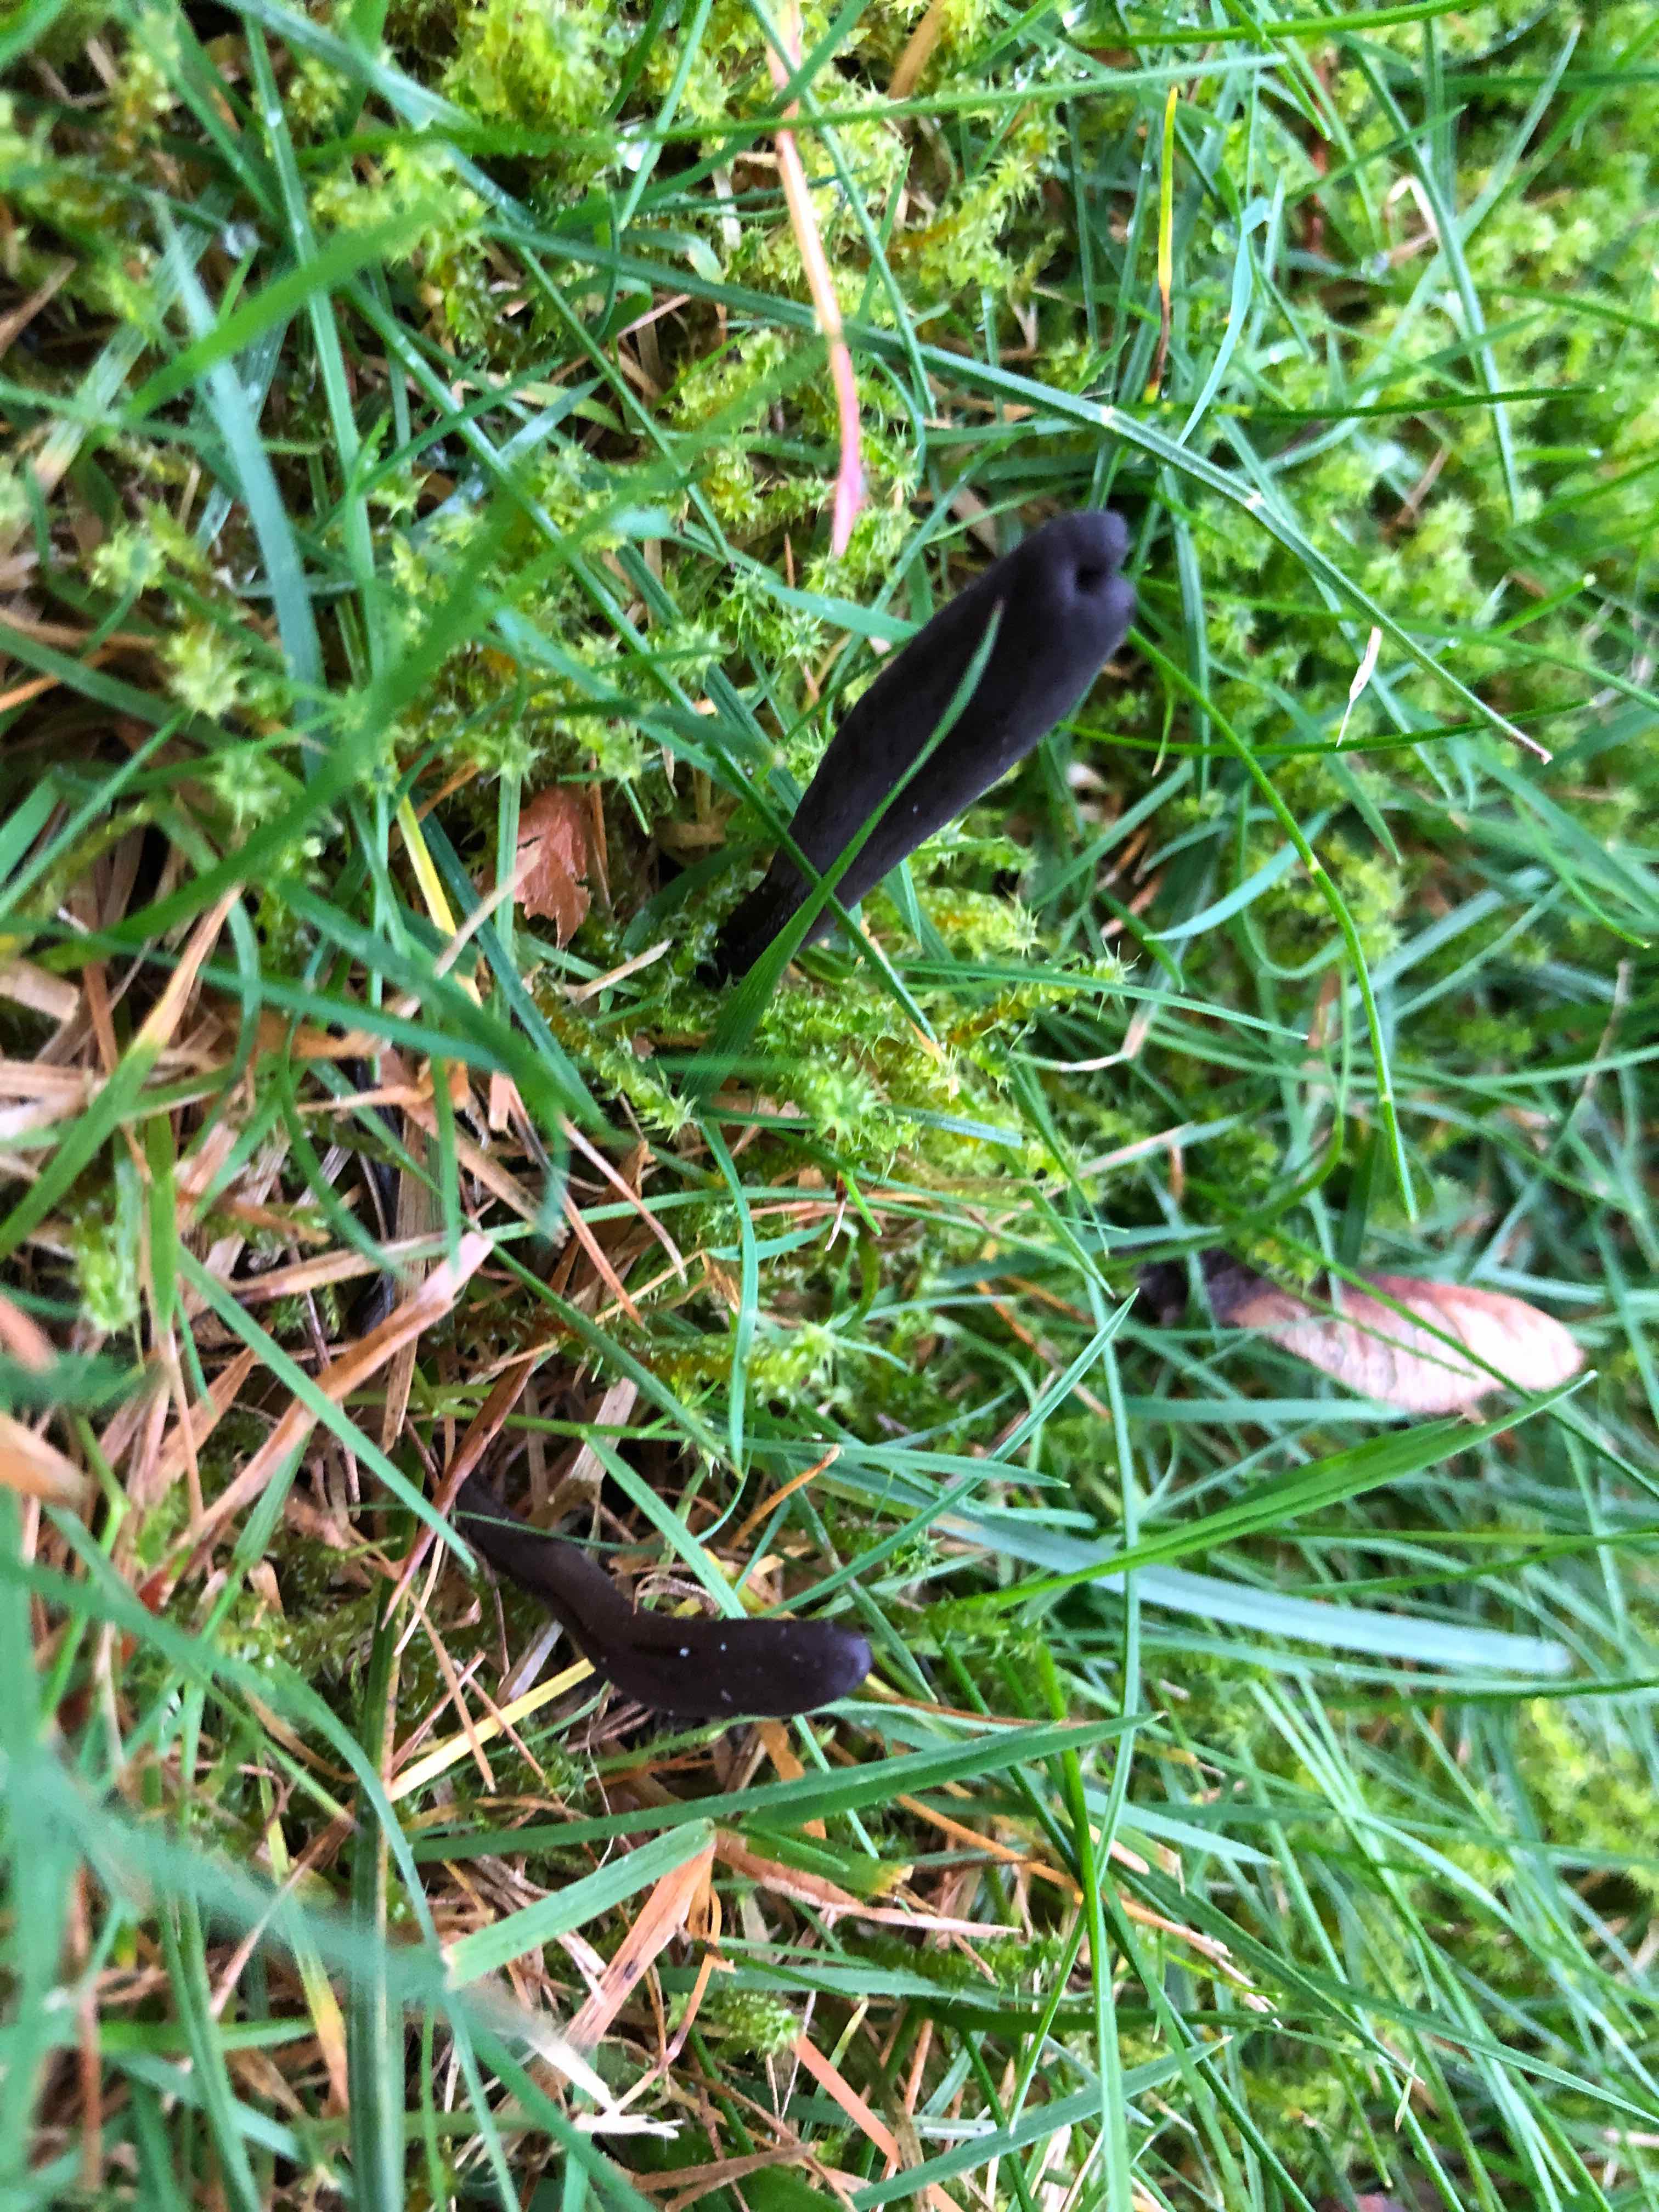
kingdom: Fungi
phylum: Ascomycota
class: Geoglossomycetes
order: Geoglossales
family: Geoglossaceae
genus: Hemileucoglossum
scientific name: Hemileucoglossum elongatum
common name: småsporet jordtunge
